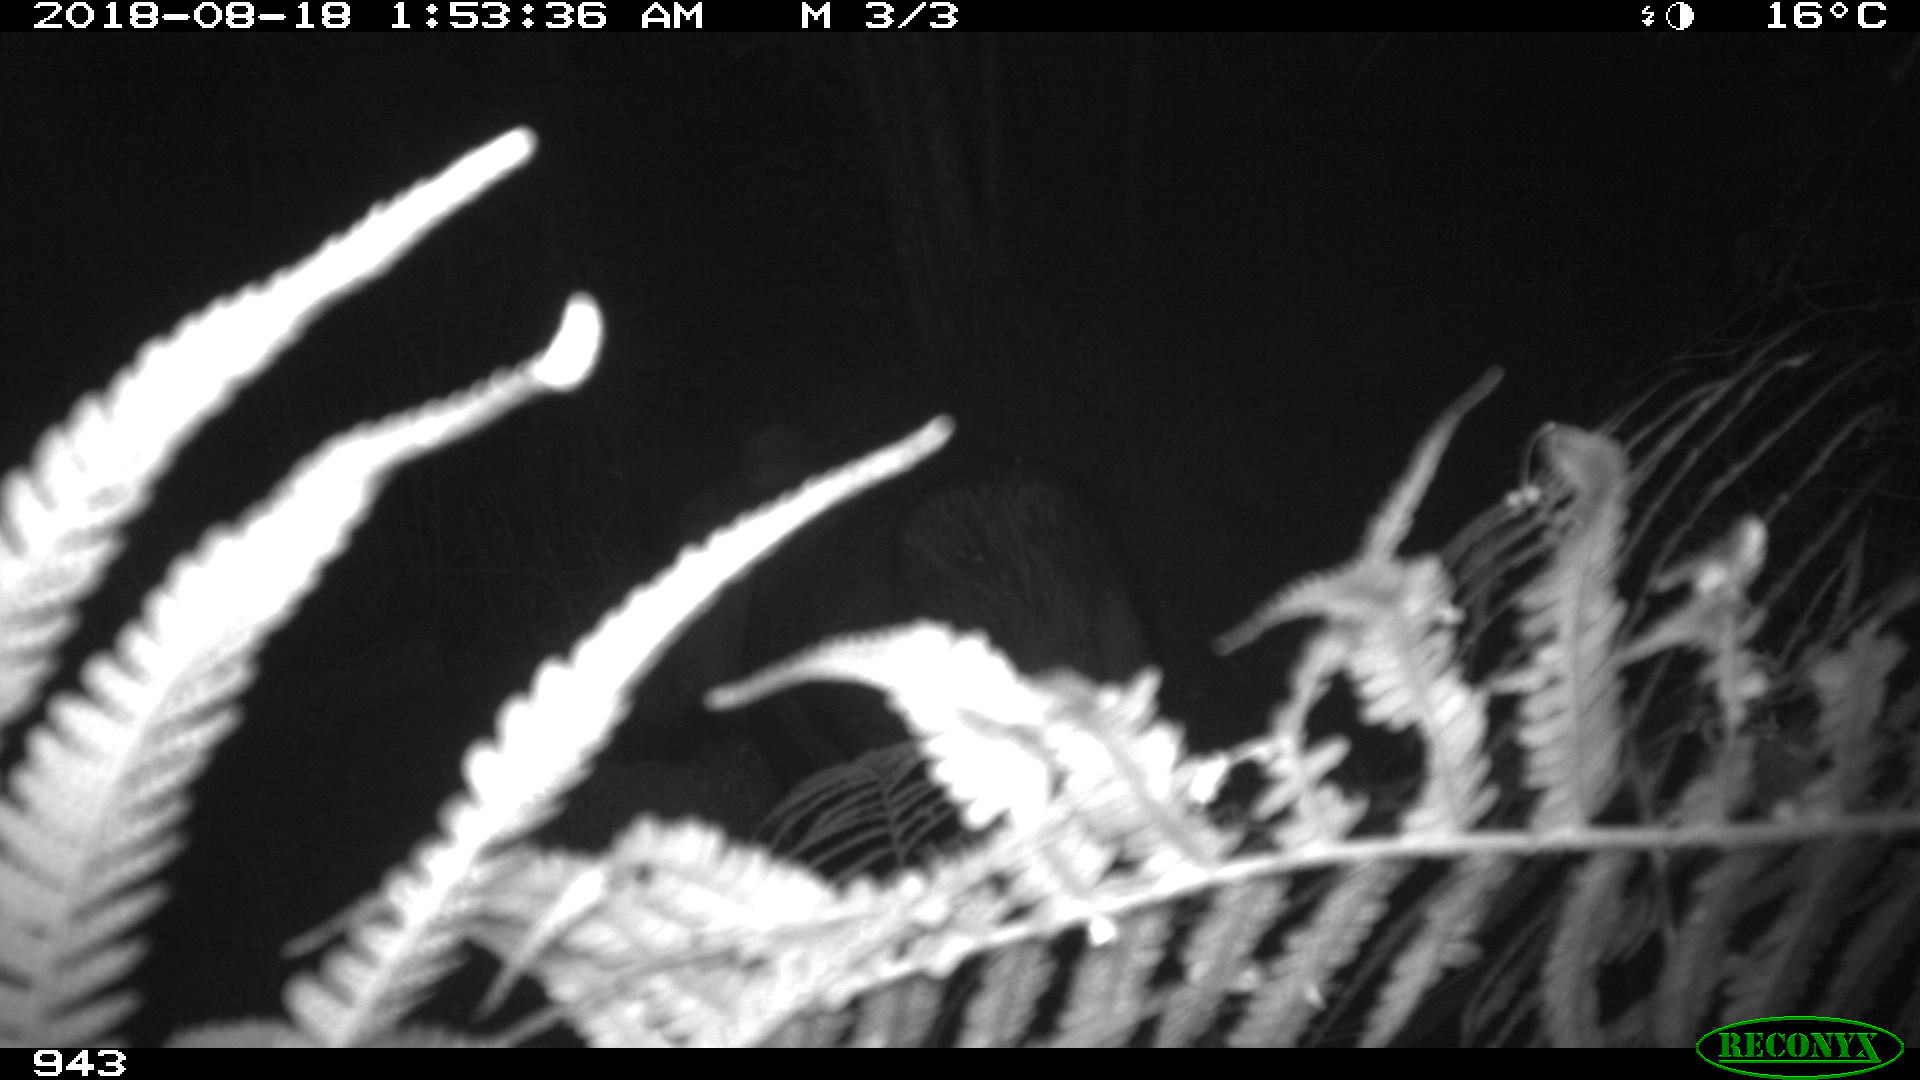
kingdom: Animalia
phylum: Chordata
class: Mammalia
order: Artiodactyla
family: Suidae
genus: Sus
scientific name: Sus scrofa
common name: Wild boar
